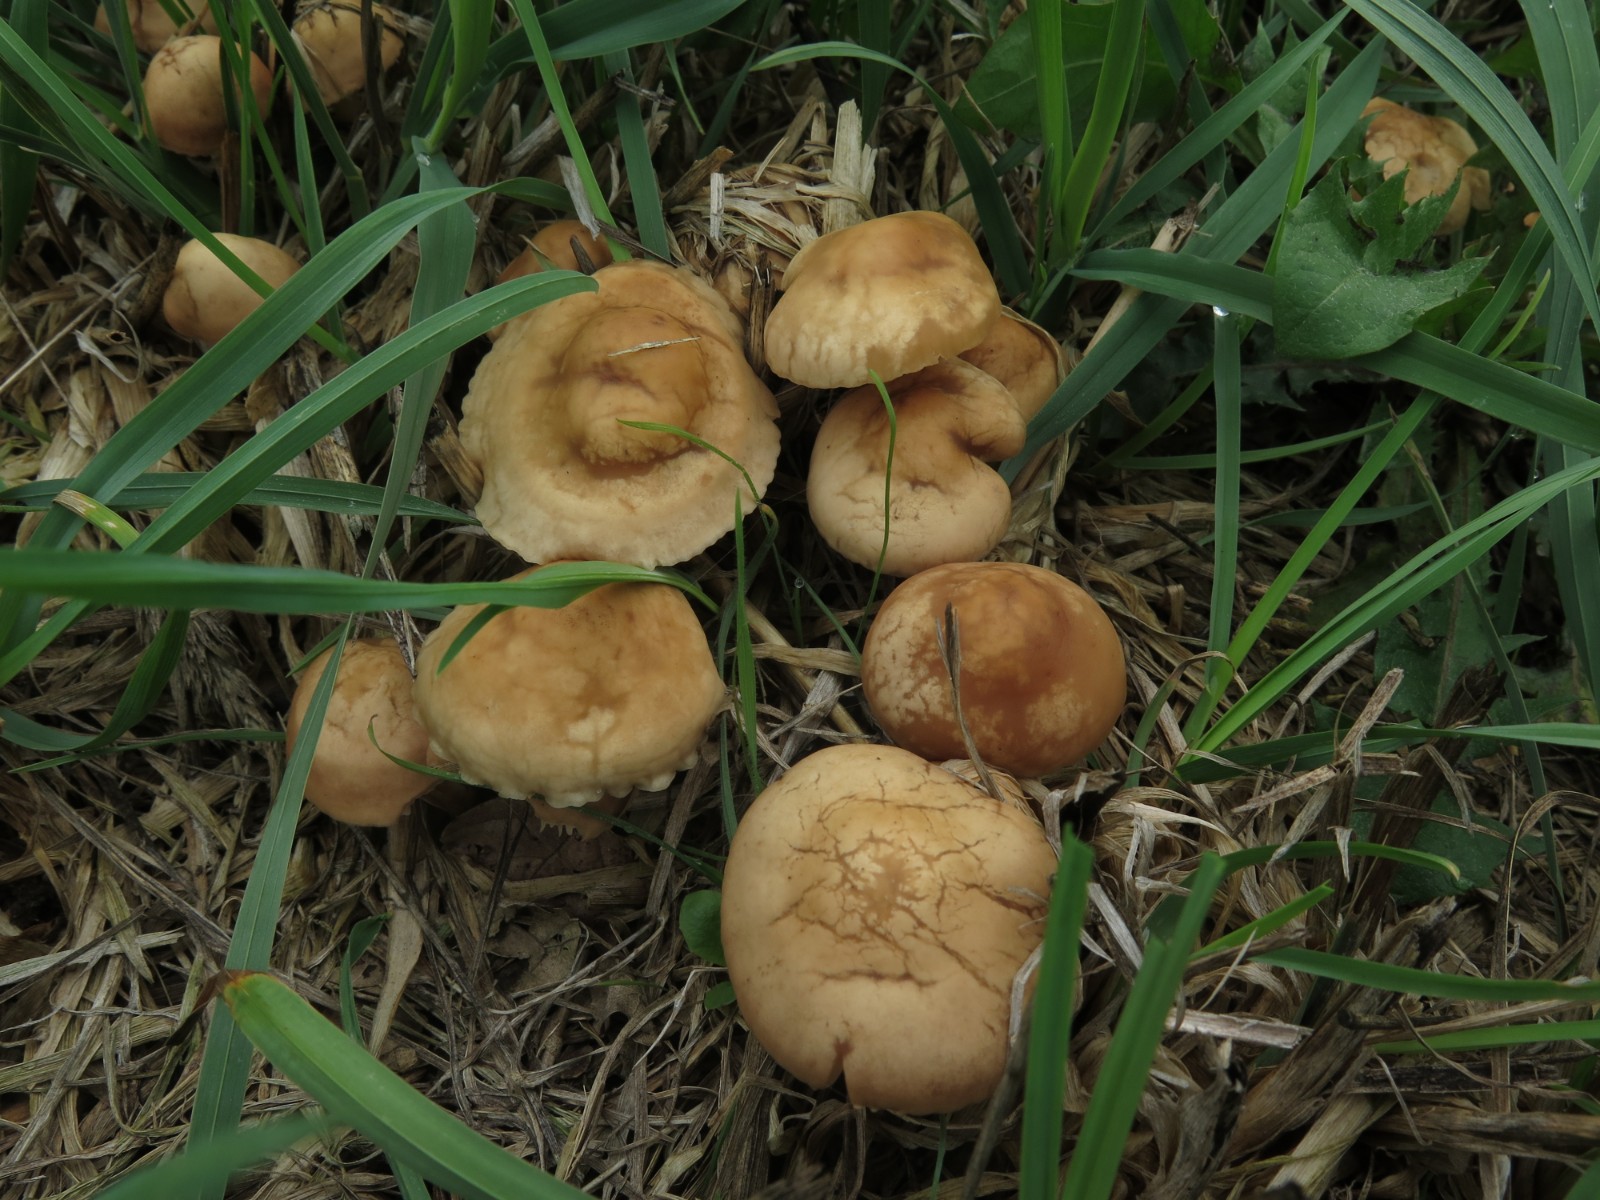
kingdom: Fungi
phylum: Basidiomycota
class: Agaricomycetes
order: Agaricales
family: Marasmiaceae
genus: Marasmius
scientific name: Marasmius oreades
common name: elledans-bruskhat
